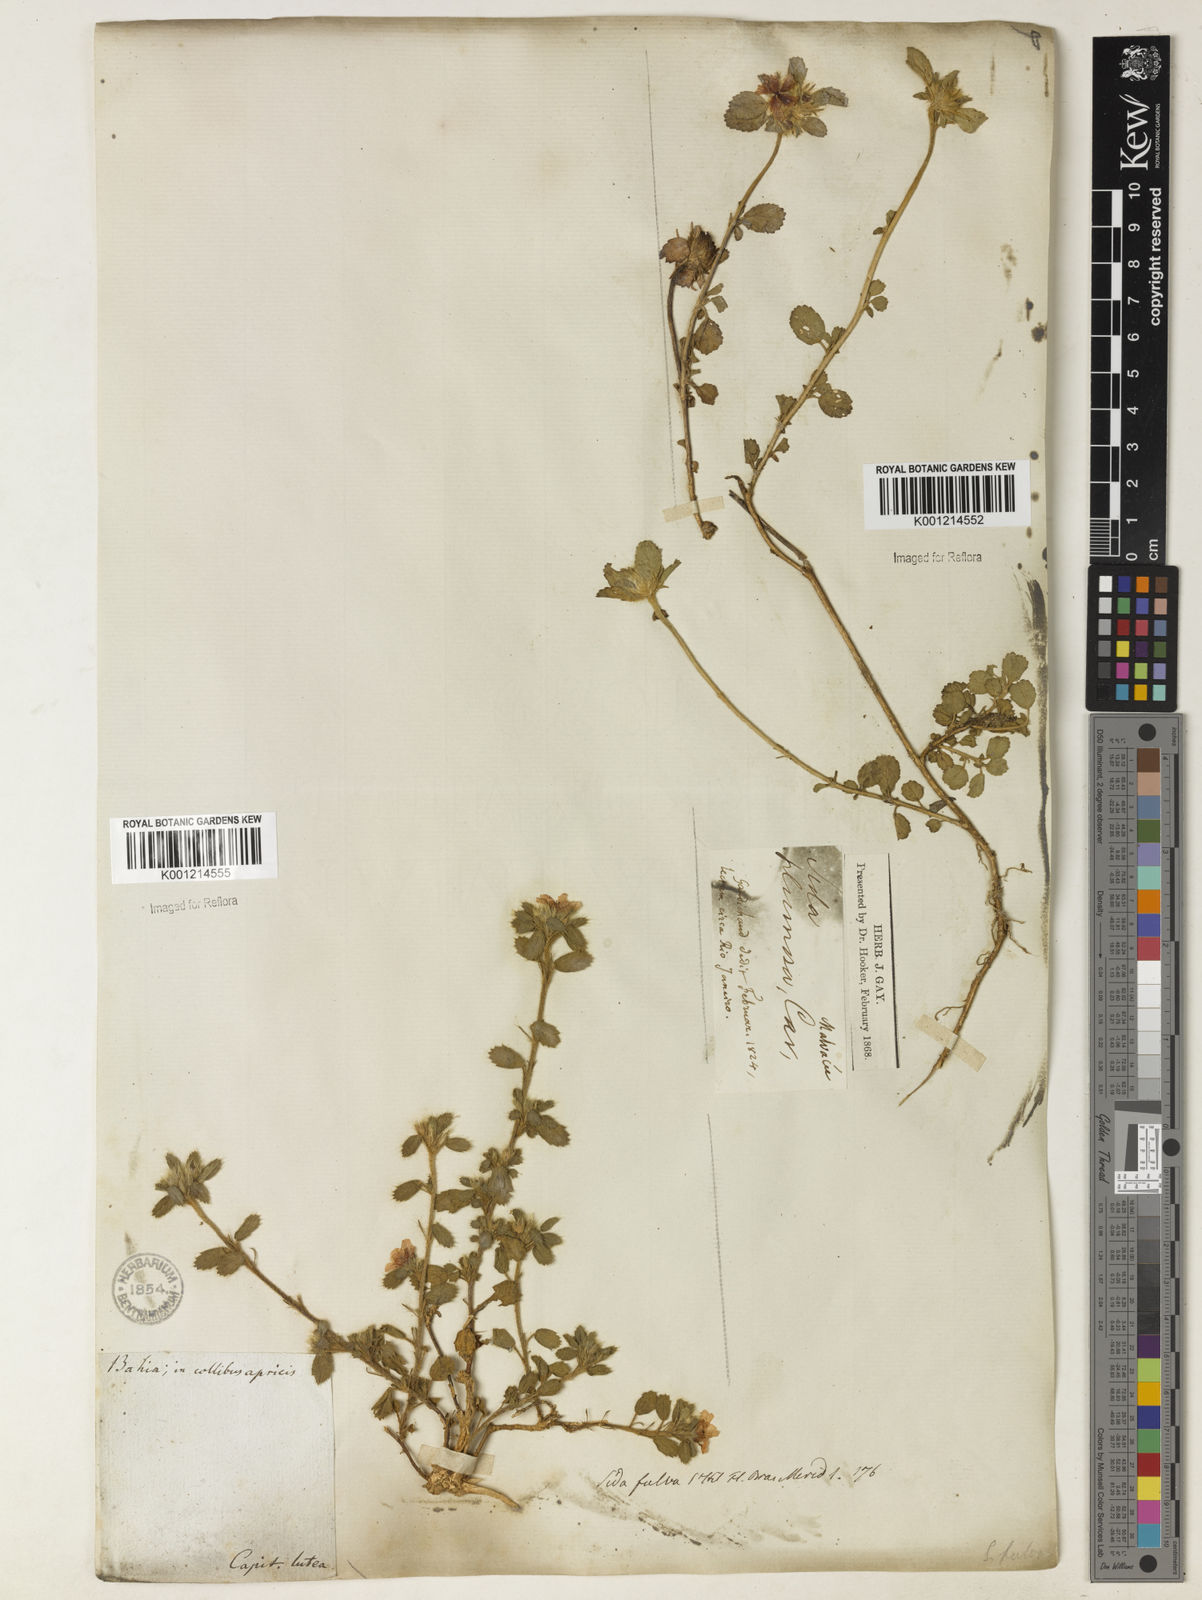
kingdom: Plantae
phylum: Tracheophyta
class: Magnoliopsida
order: Malvales
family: Malvaceae
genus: Sida
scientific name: Sida ciliaris
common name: Bracted fanpetals
